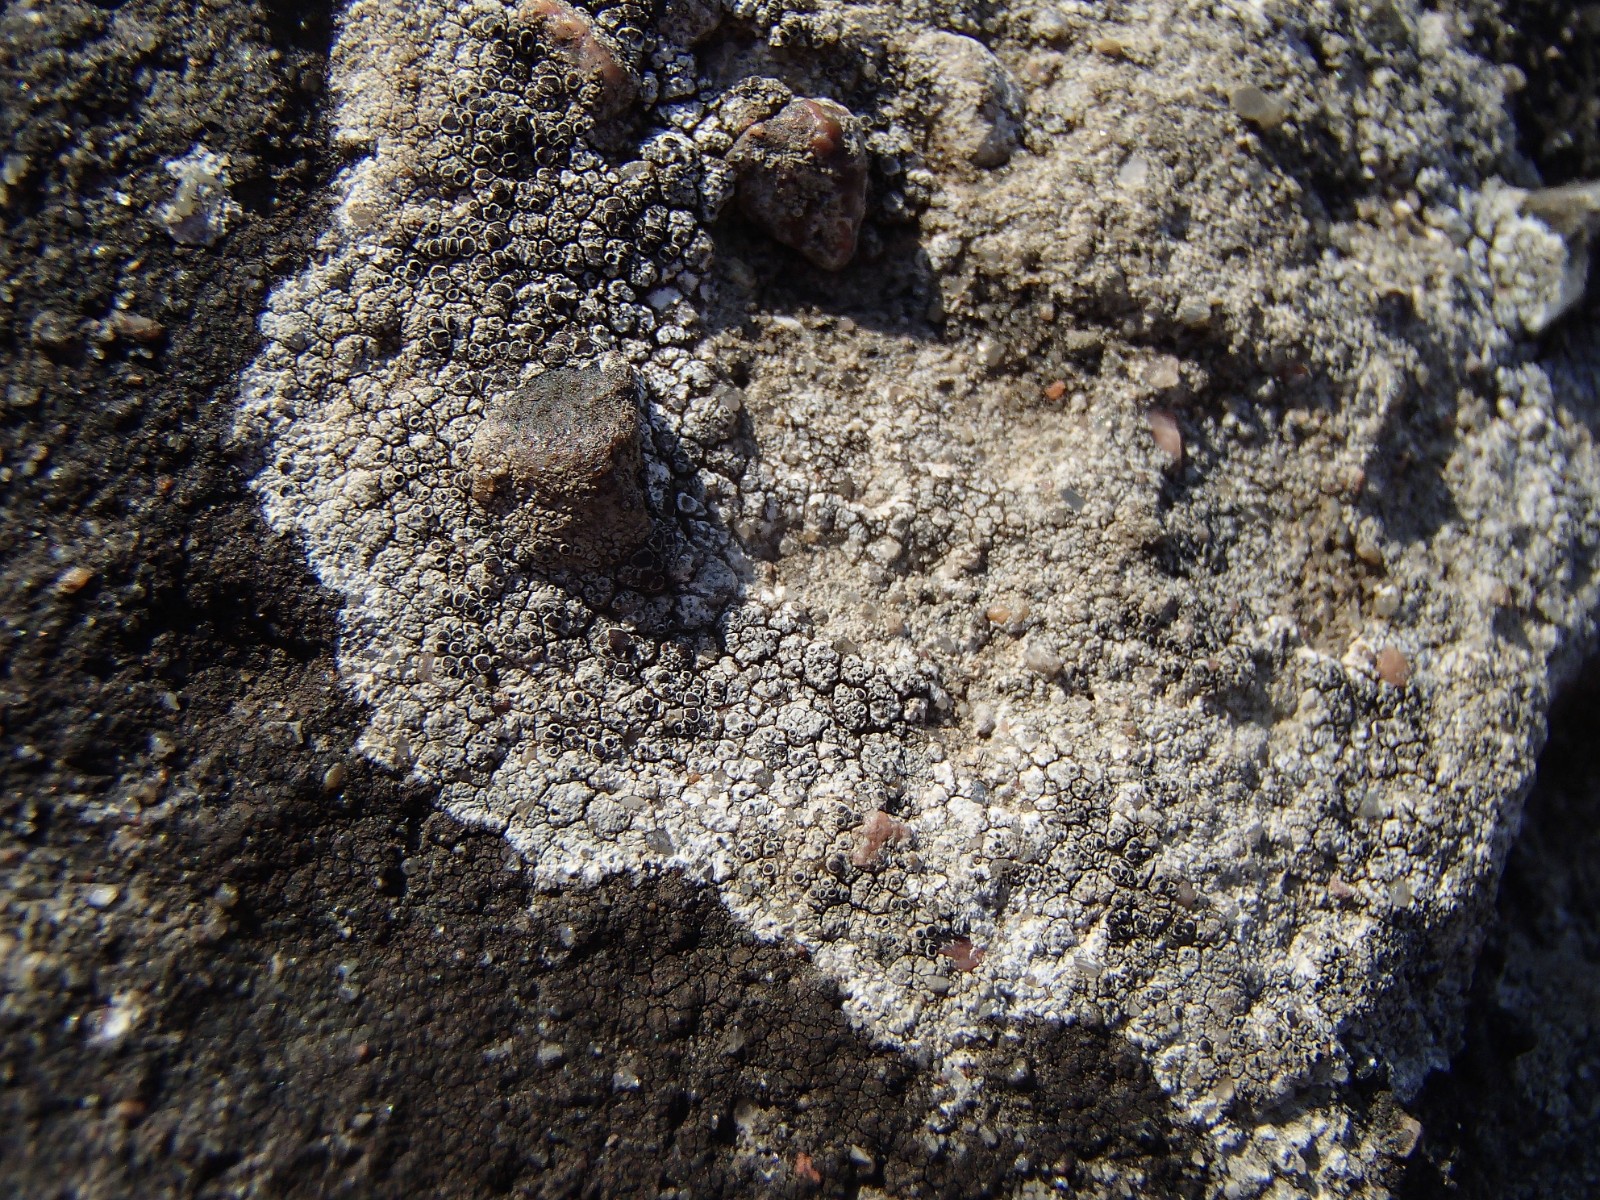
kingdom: Fungi
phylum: Ascomycota
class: Lecanoromycetes
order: Lecanorales
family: Lecanoraceae
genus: Lecanora
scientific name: Lecanora gangaleoides
